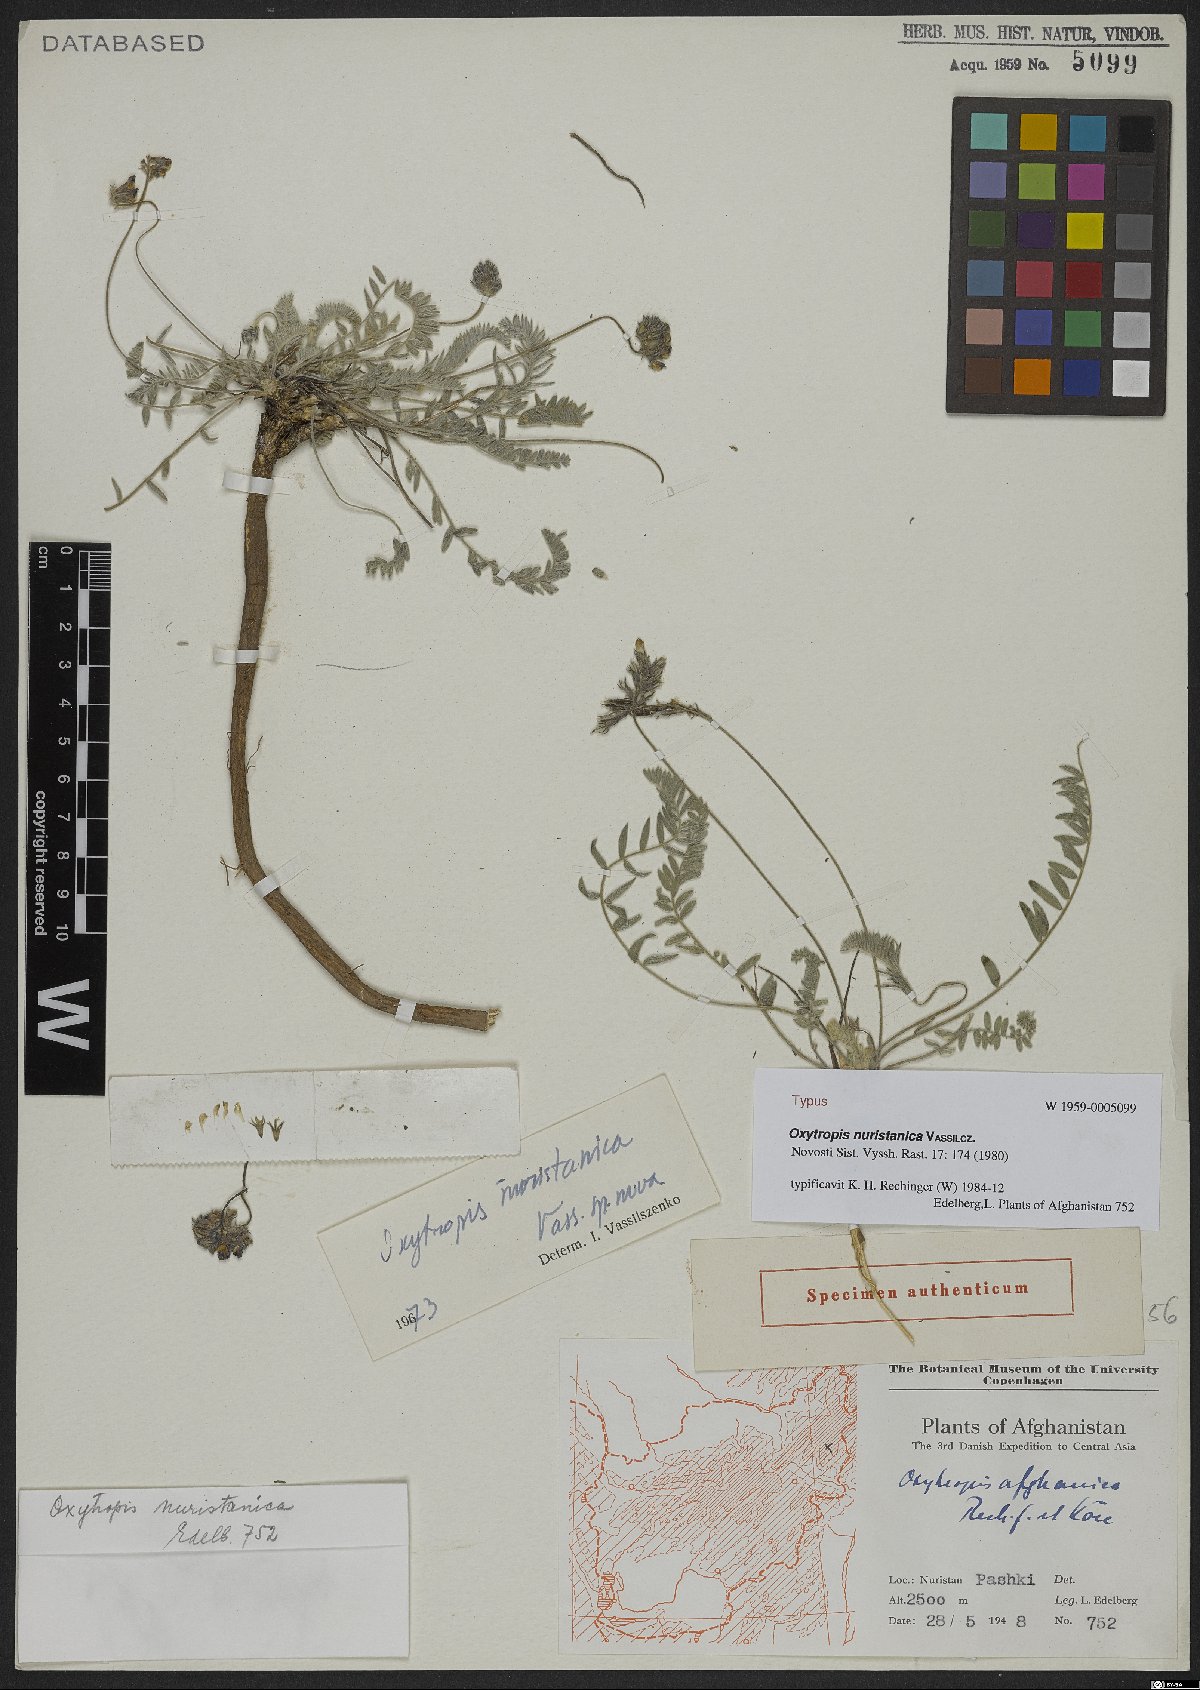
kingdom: Plantae
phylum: Tracheophyta
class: Magnoliopsida
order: Fabales
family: Fabaceae
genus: Oxytropis
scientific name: Oxytropis nuristanica
